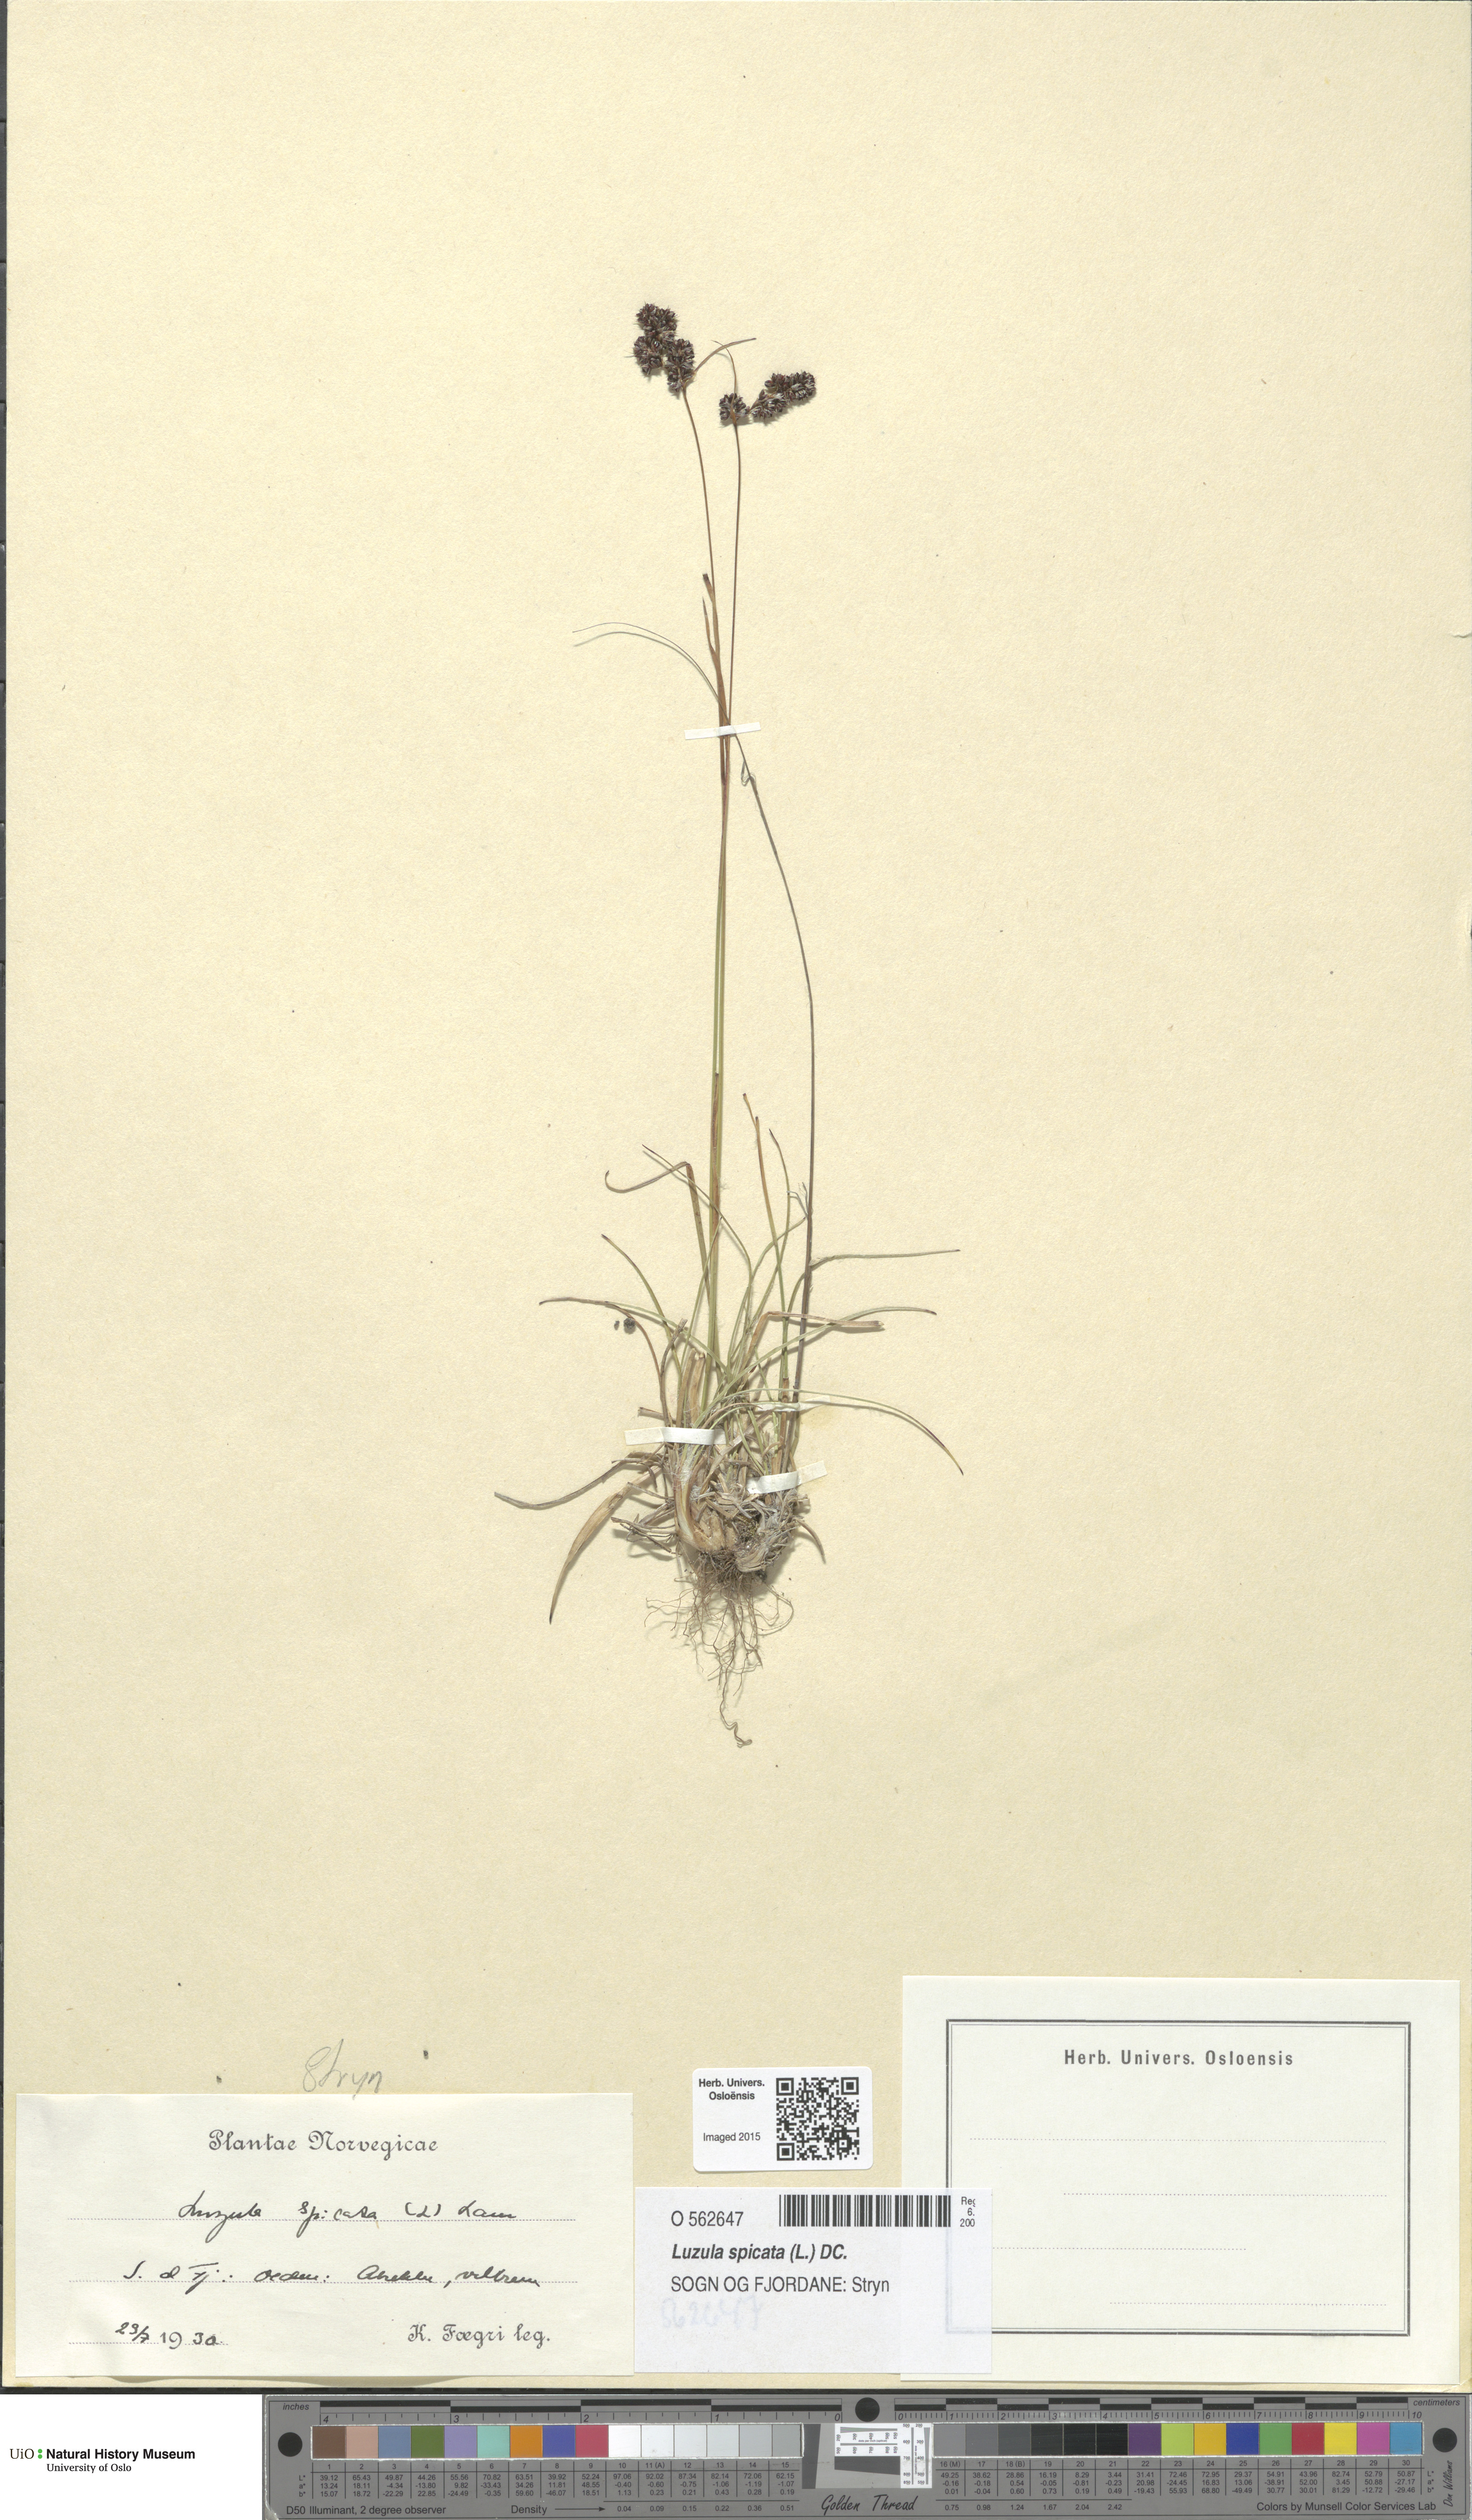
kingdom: Plantae
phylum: Tracheophyta
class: Liliopsida
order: Poales
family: Juncaceae
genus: Luzula
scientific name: Luzula spicata
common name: Spiked wood-rush
